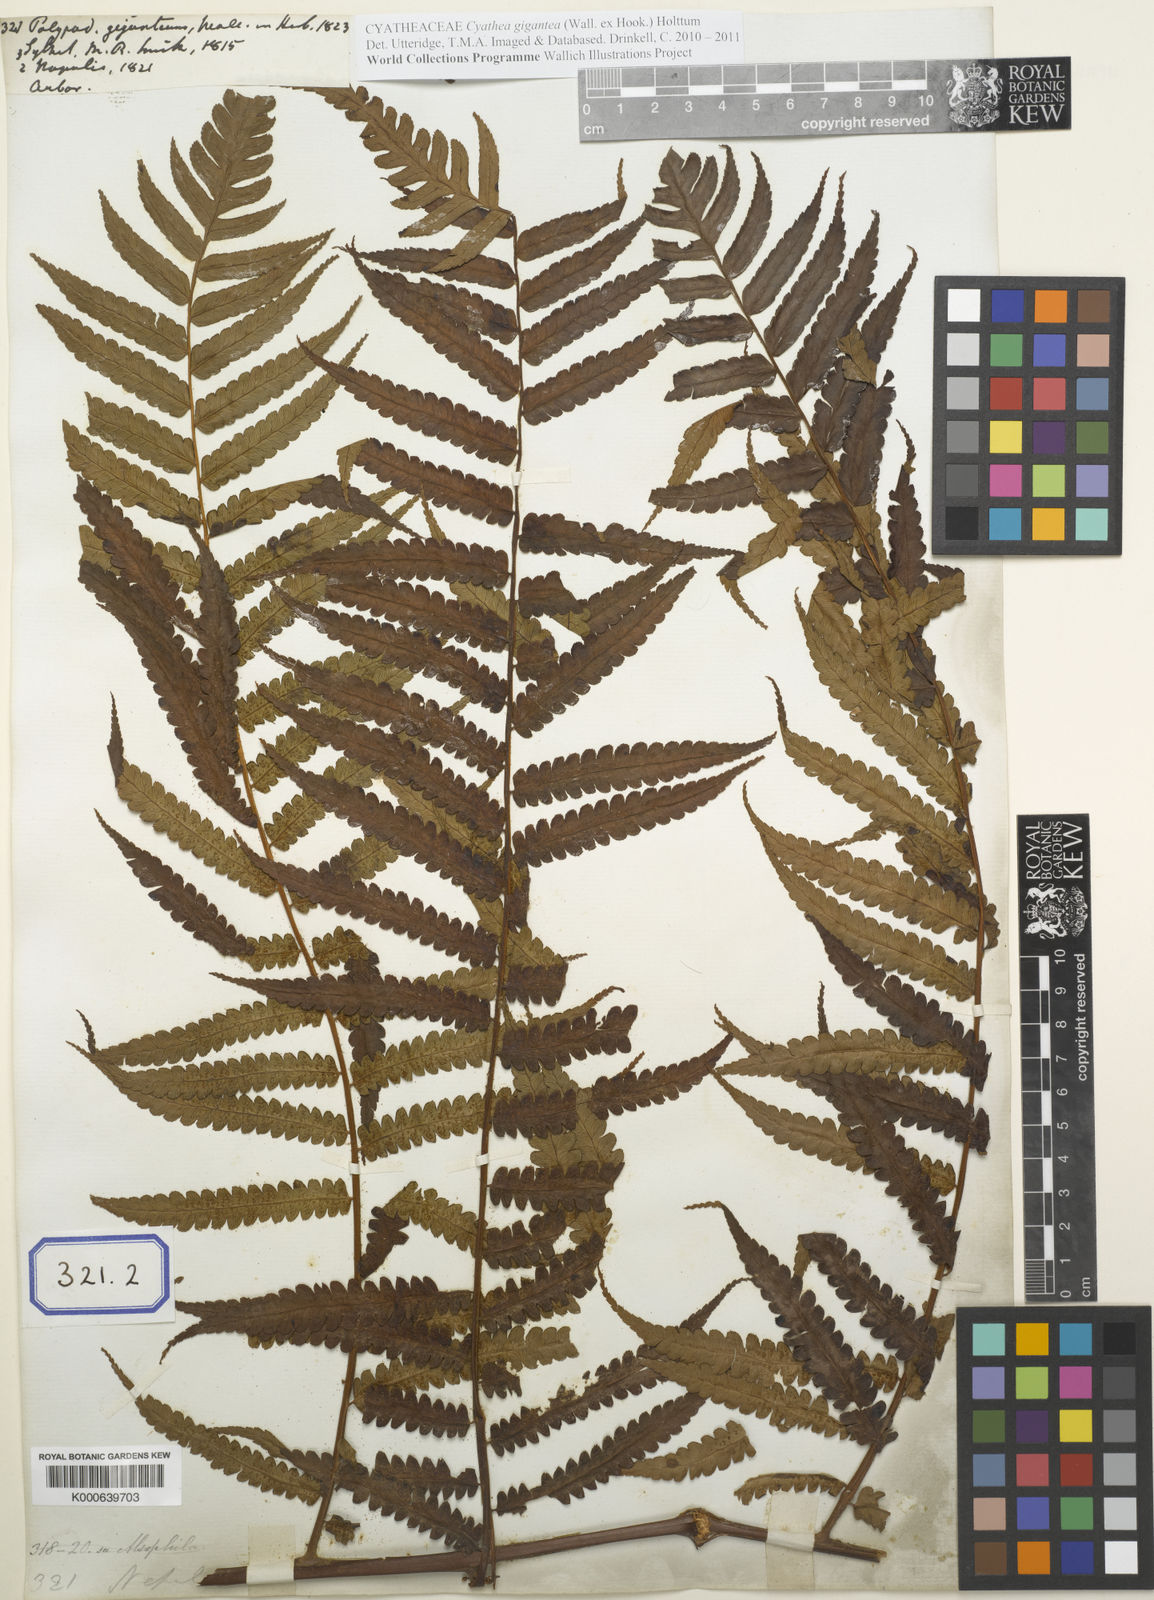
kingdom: Plantae
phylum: Tracheophyta
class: Polypodiopsida
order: Cyatheales
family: Cyatheaceae
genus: Gymnosphaera
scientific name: Gymnosphaera gigantea
